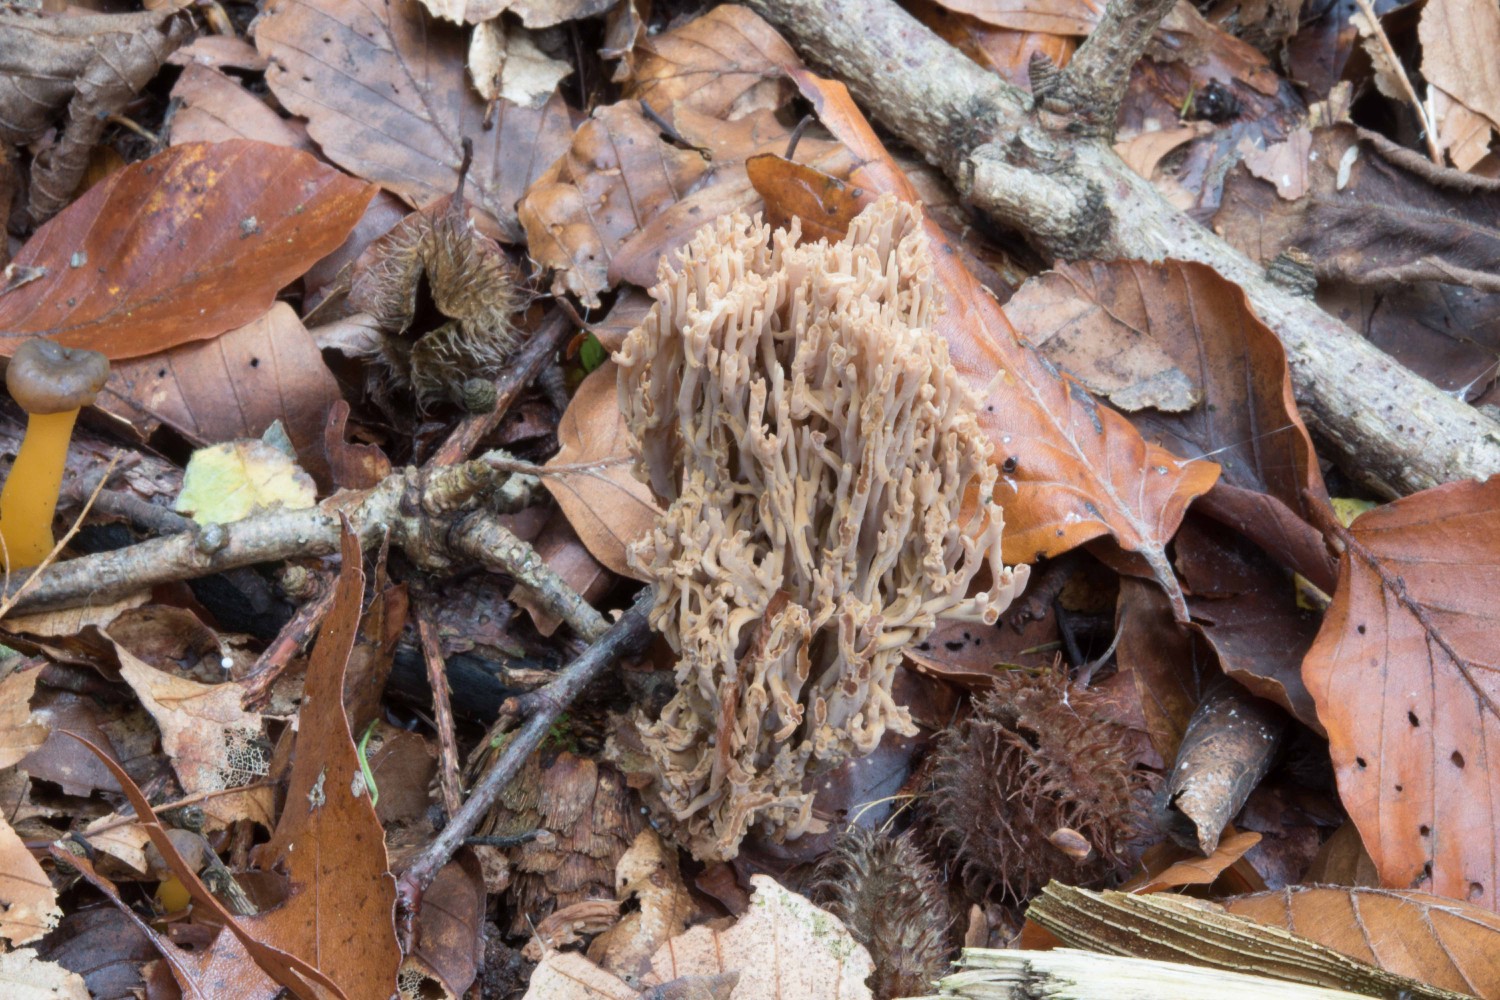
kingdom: Fungi
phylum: Basidiomycota
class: Agaricomycetes
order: Gomphales
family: Gomphaceae
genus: Ramaria
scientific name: Ramaria stricta
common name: rank koralsvamp
